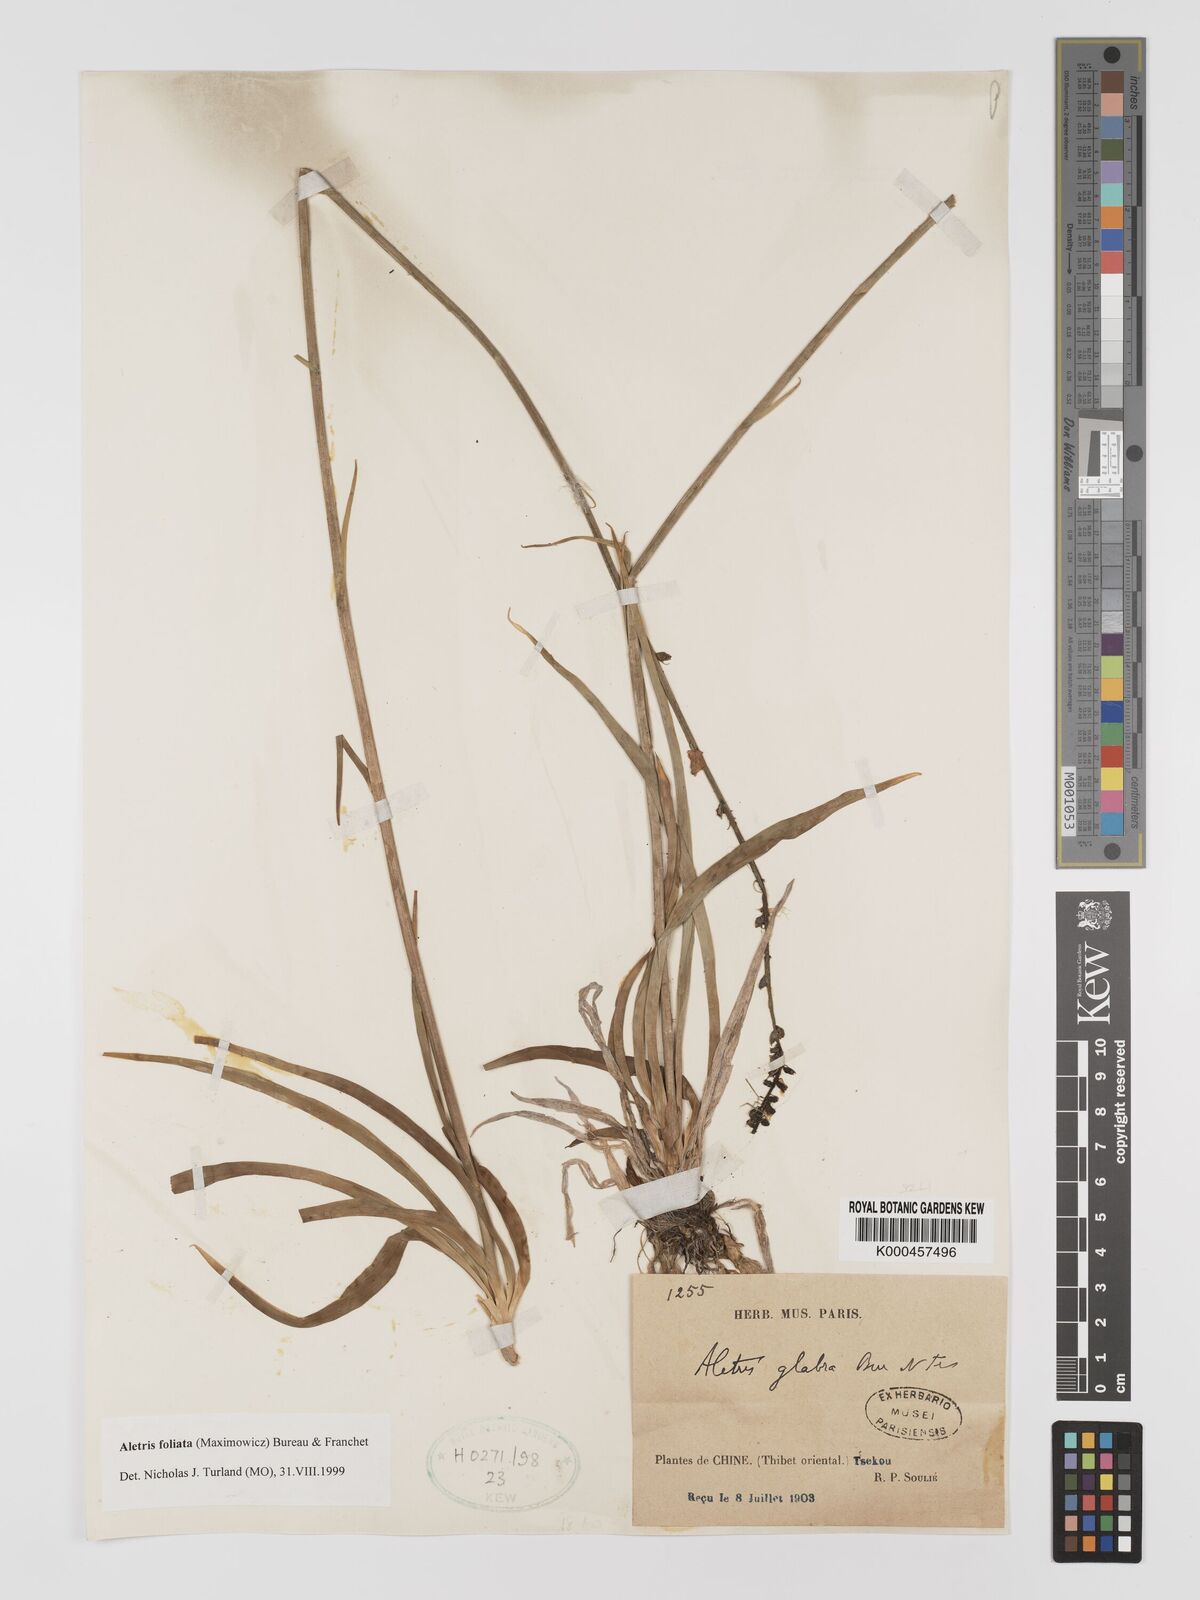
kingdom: Plantae
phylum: Tracheophyta
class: Liliopsida
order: Dioscoreales
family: Nartheciaceae
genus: Aletris
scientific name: Aletris glabra
